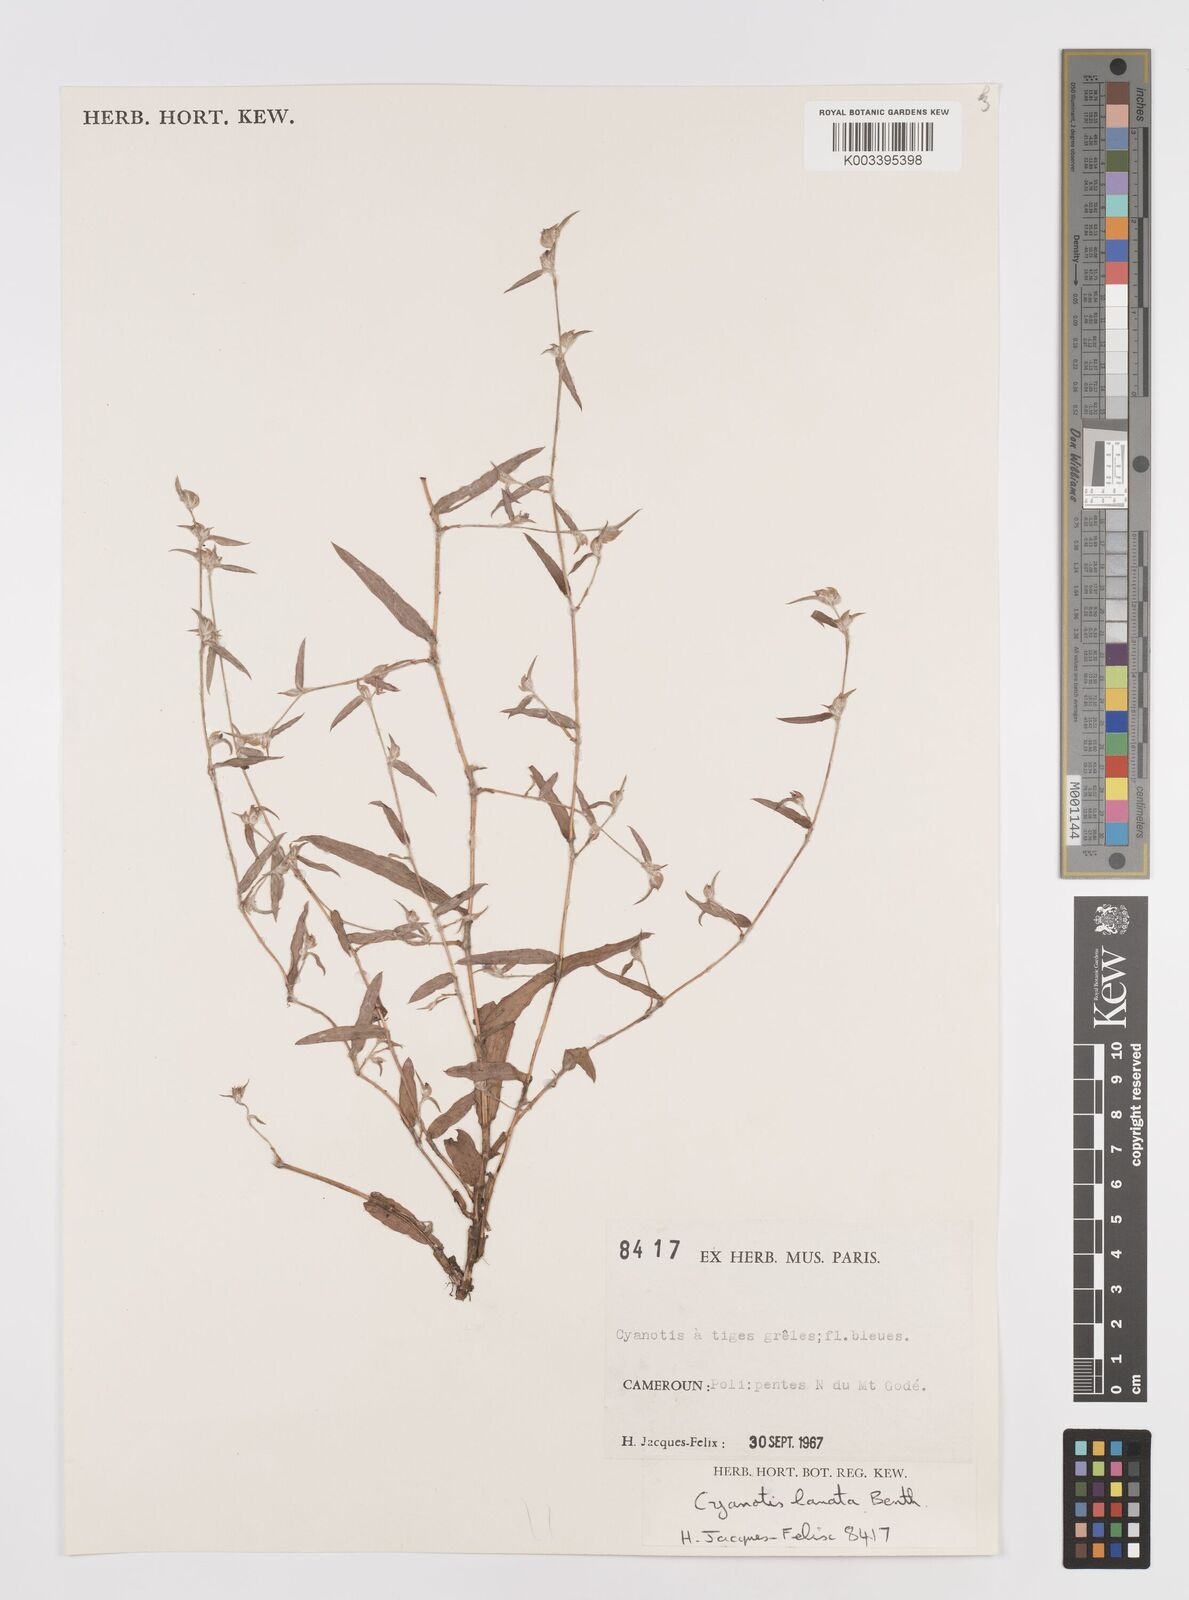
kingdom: Plantae
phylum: Tracheophyta
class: Liliopsida
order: Commelinales
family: Commelinaceae
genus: Cyanotis
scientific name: Cyanotis lanata
